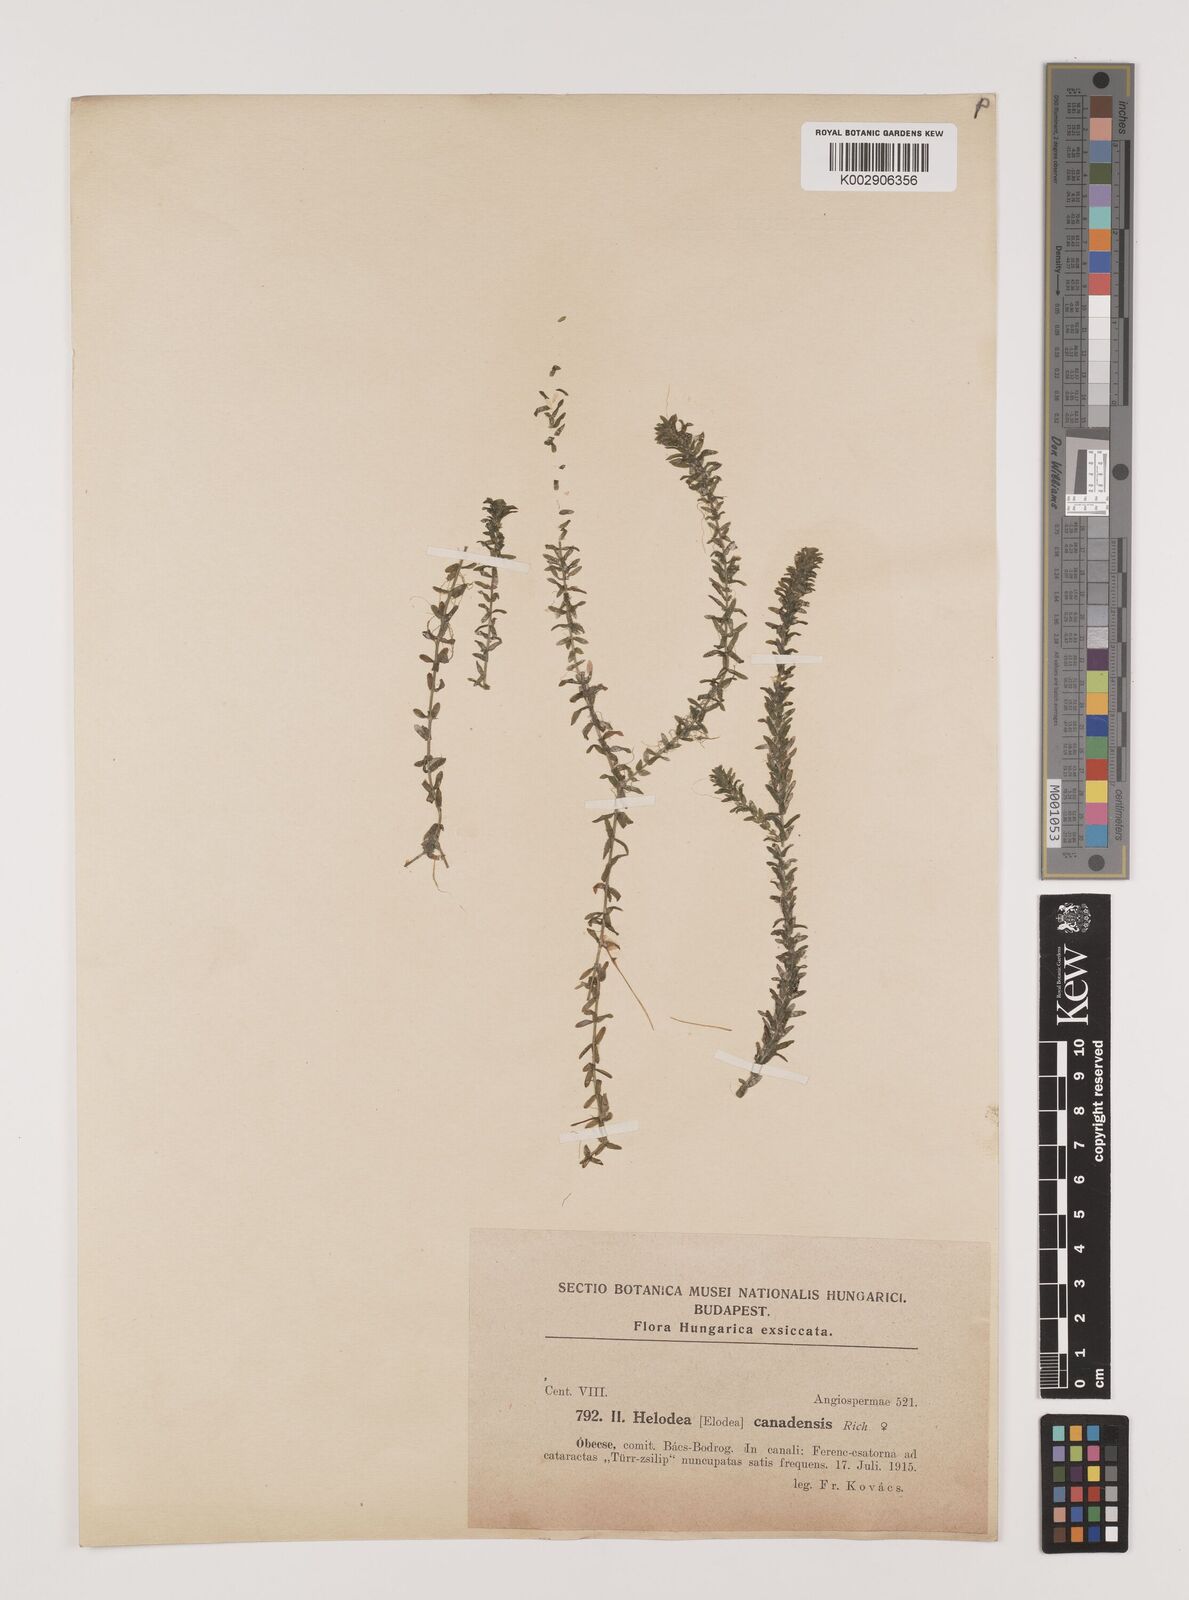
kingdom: Plantae
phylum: Tracheophyta
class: Liliopsida
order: Alismatales
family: Hydrocharitaceae
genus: Elodea
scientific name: Elodea canadensis
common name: Canadian waterweed
